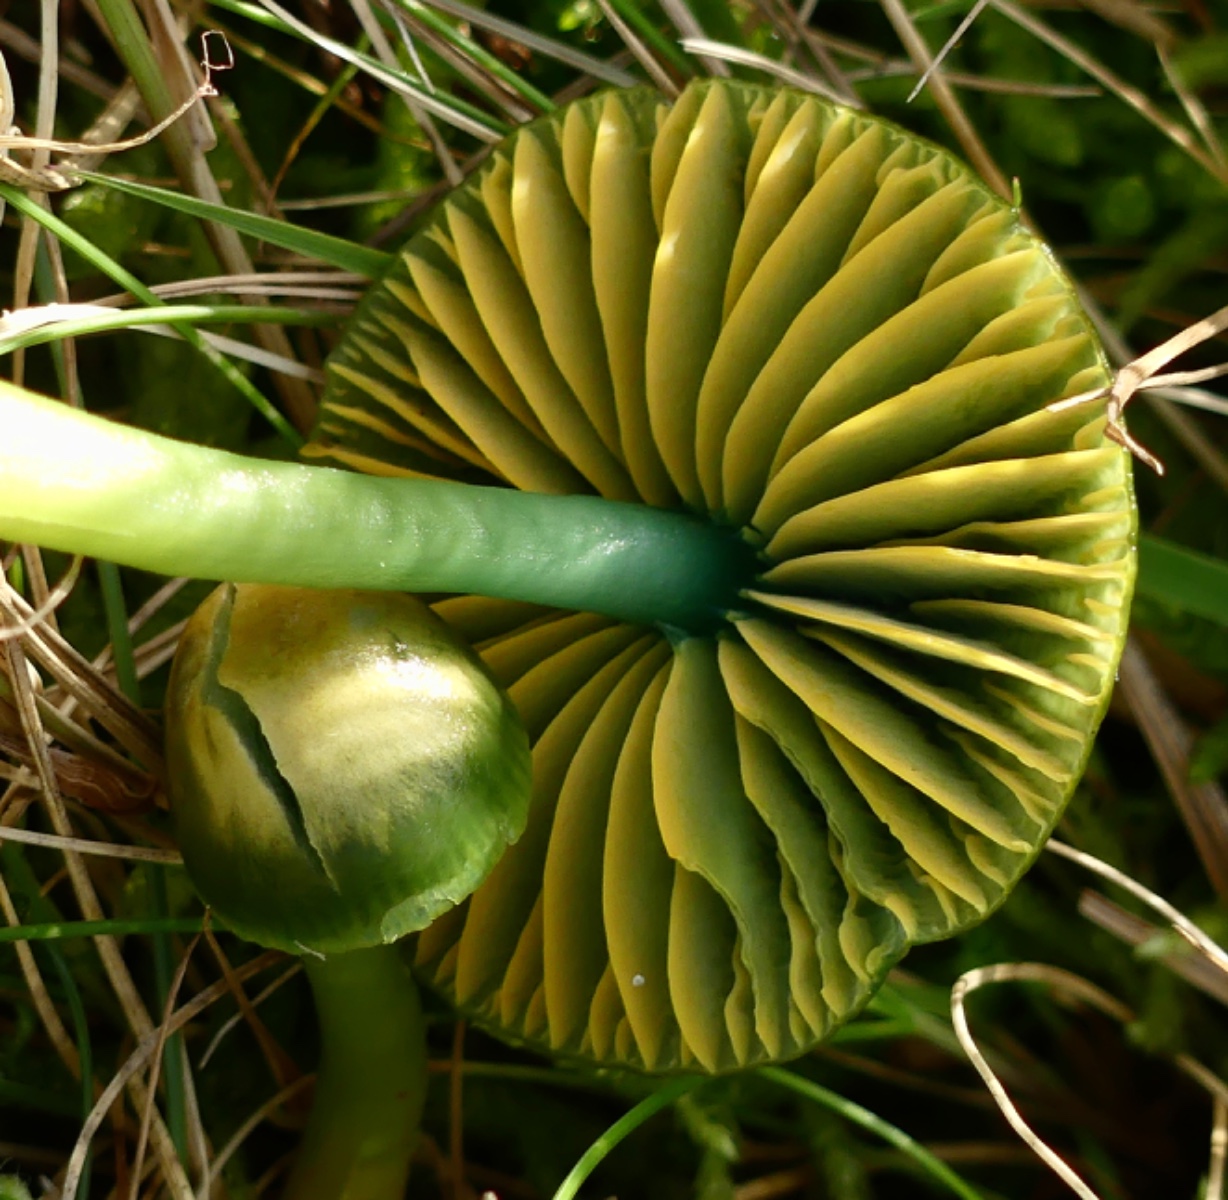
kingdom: Fungi
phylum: Basidiomycota
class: Agaricomycetes
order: Agaricales
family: Hygrophoraceae
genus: Gliophorus
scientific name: Gliophorus psittacinus
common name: papegøje-vokshat
